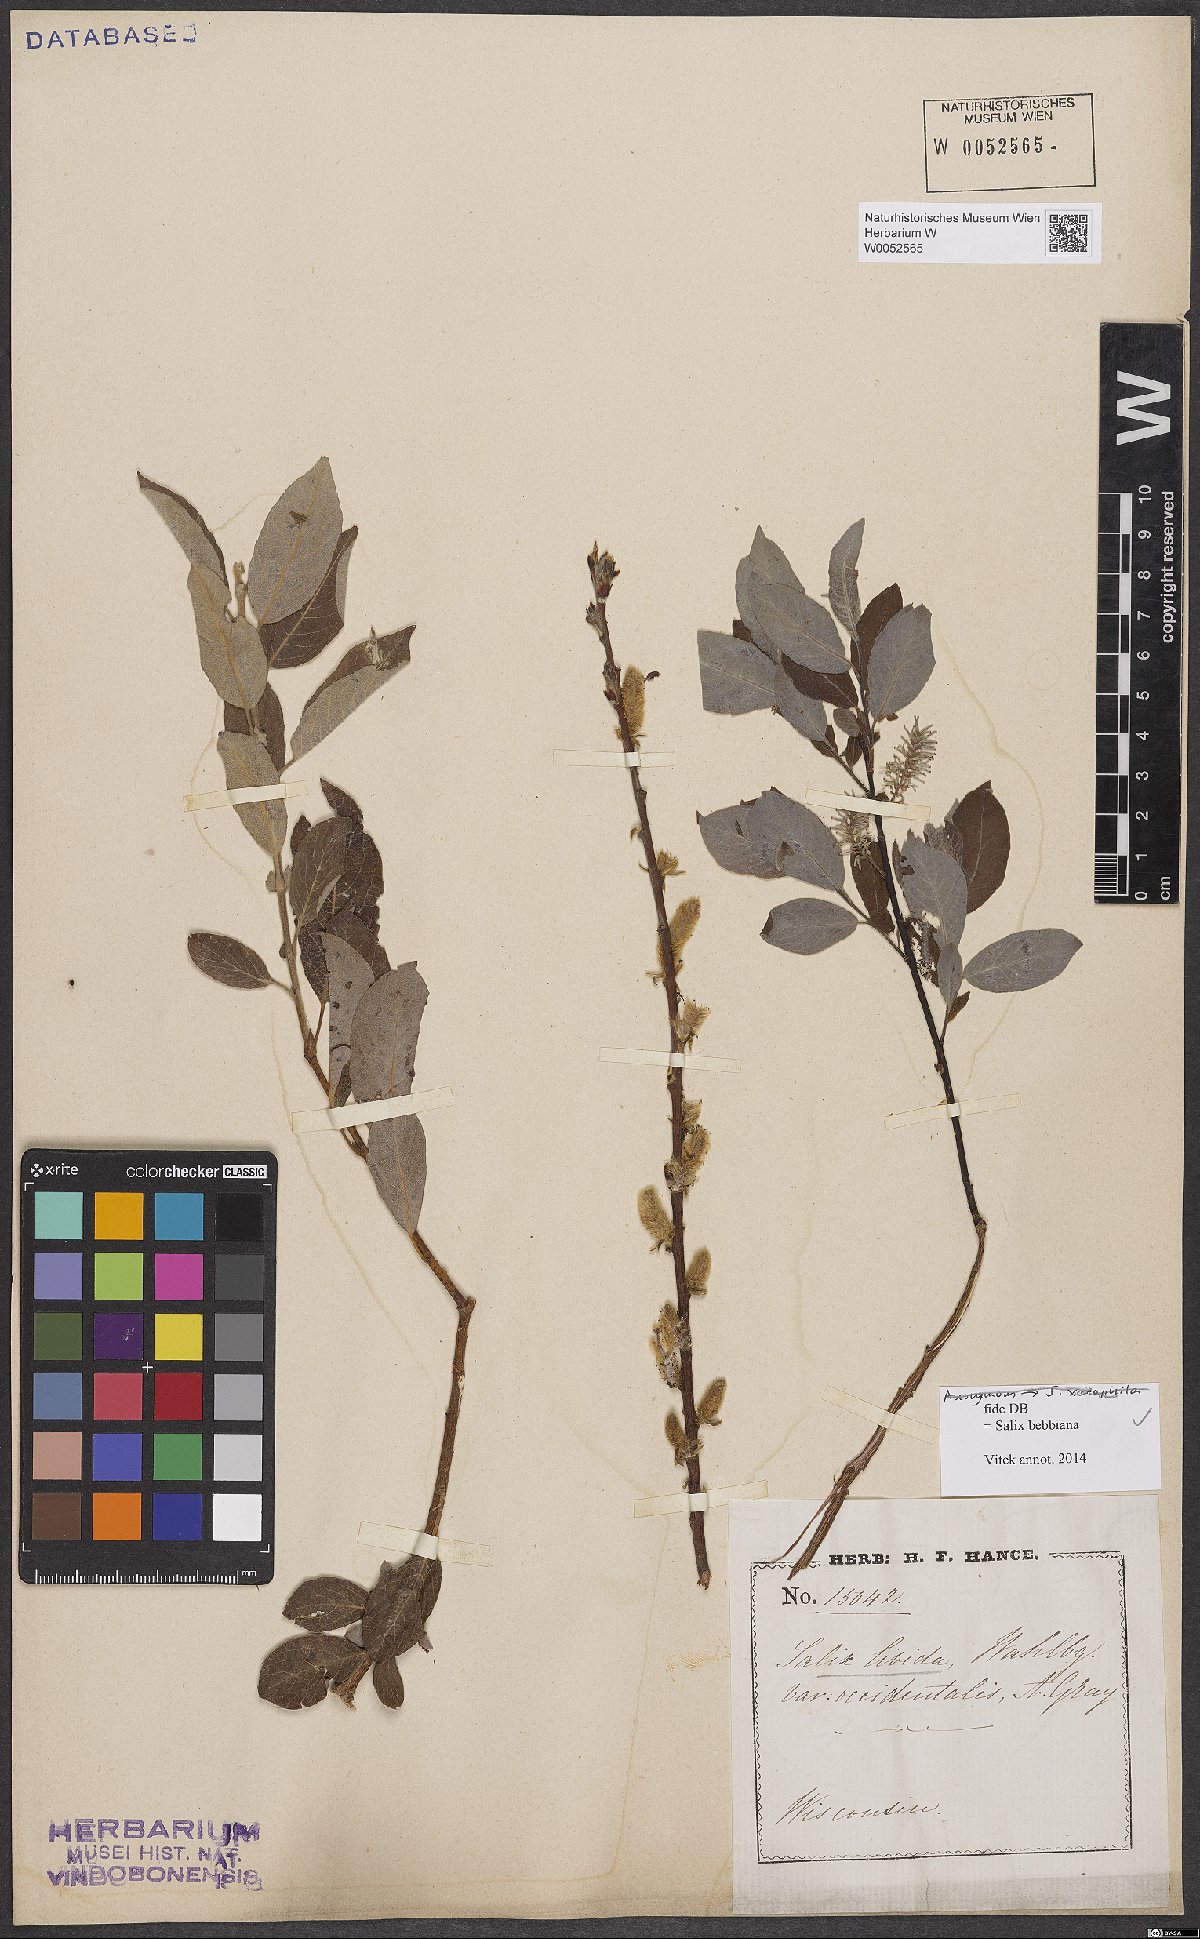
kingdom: Plantae
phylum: Tracheophyta
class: Magnoliopsida
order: Malpighiales
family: Salicaceae
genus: Salix
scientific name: Salix bebbiana
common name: Bebb's willow
